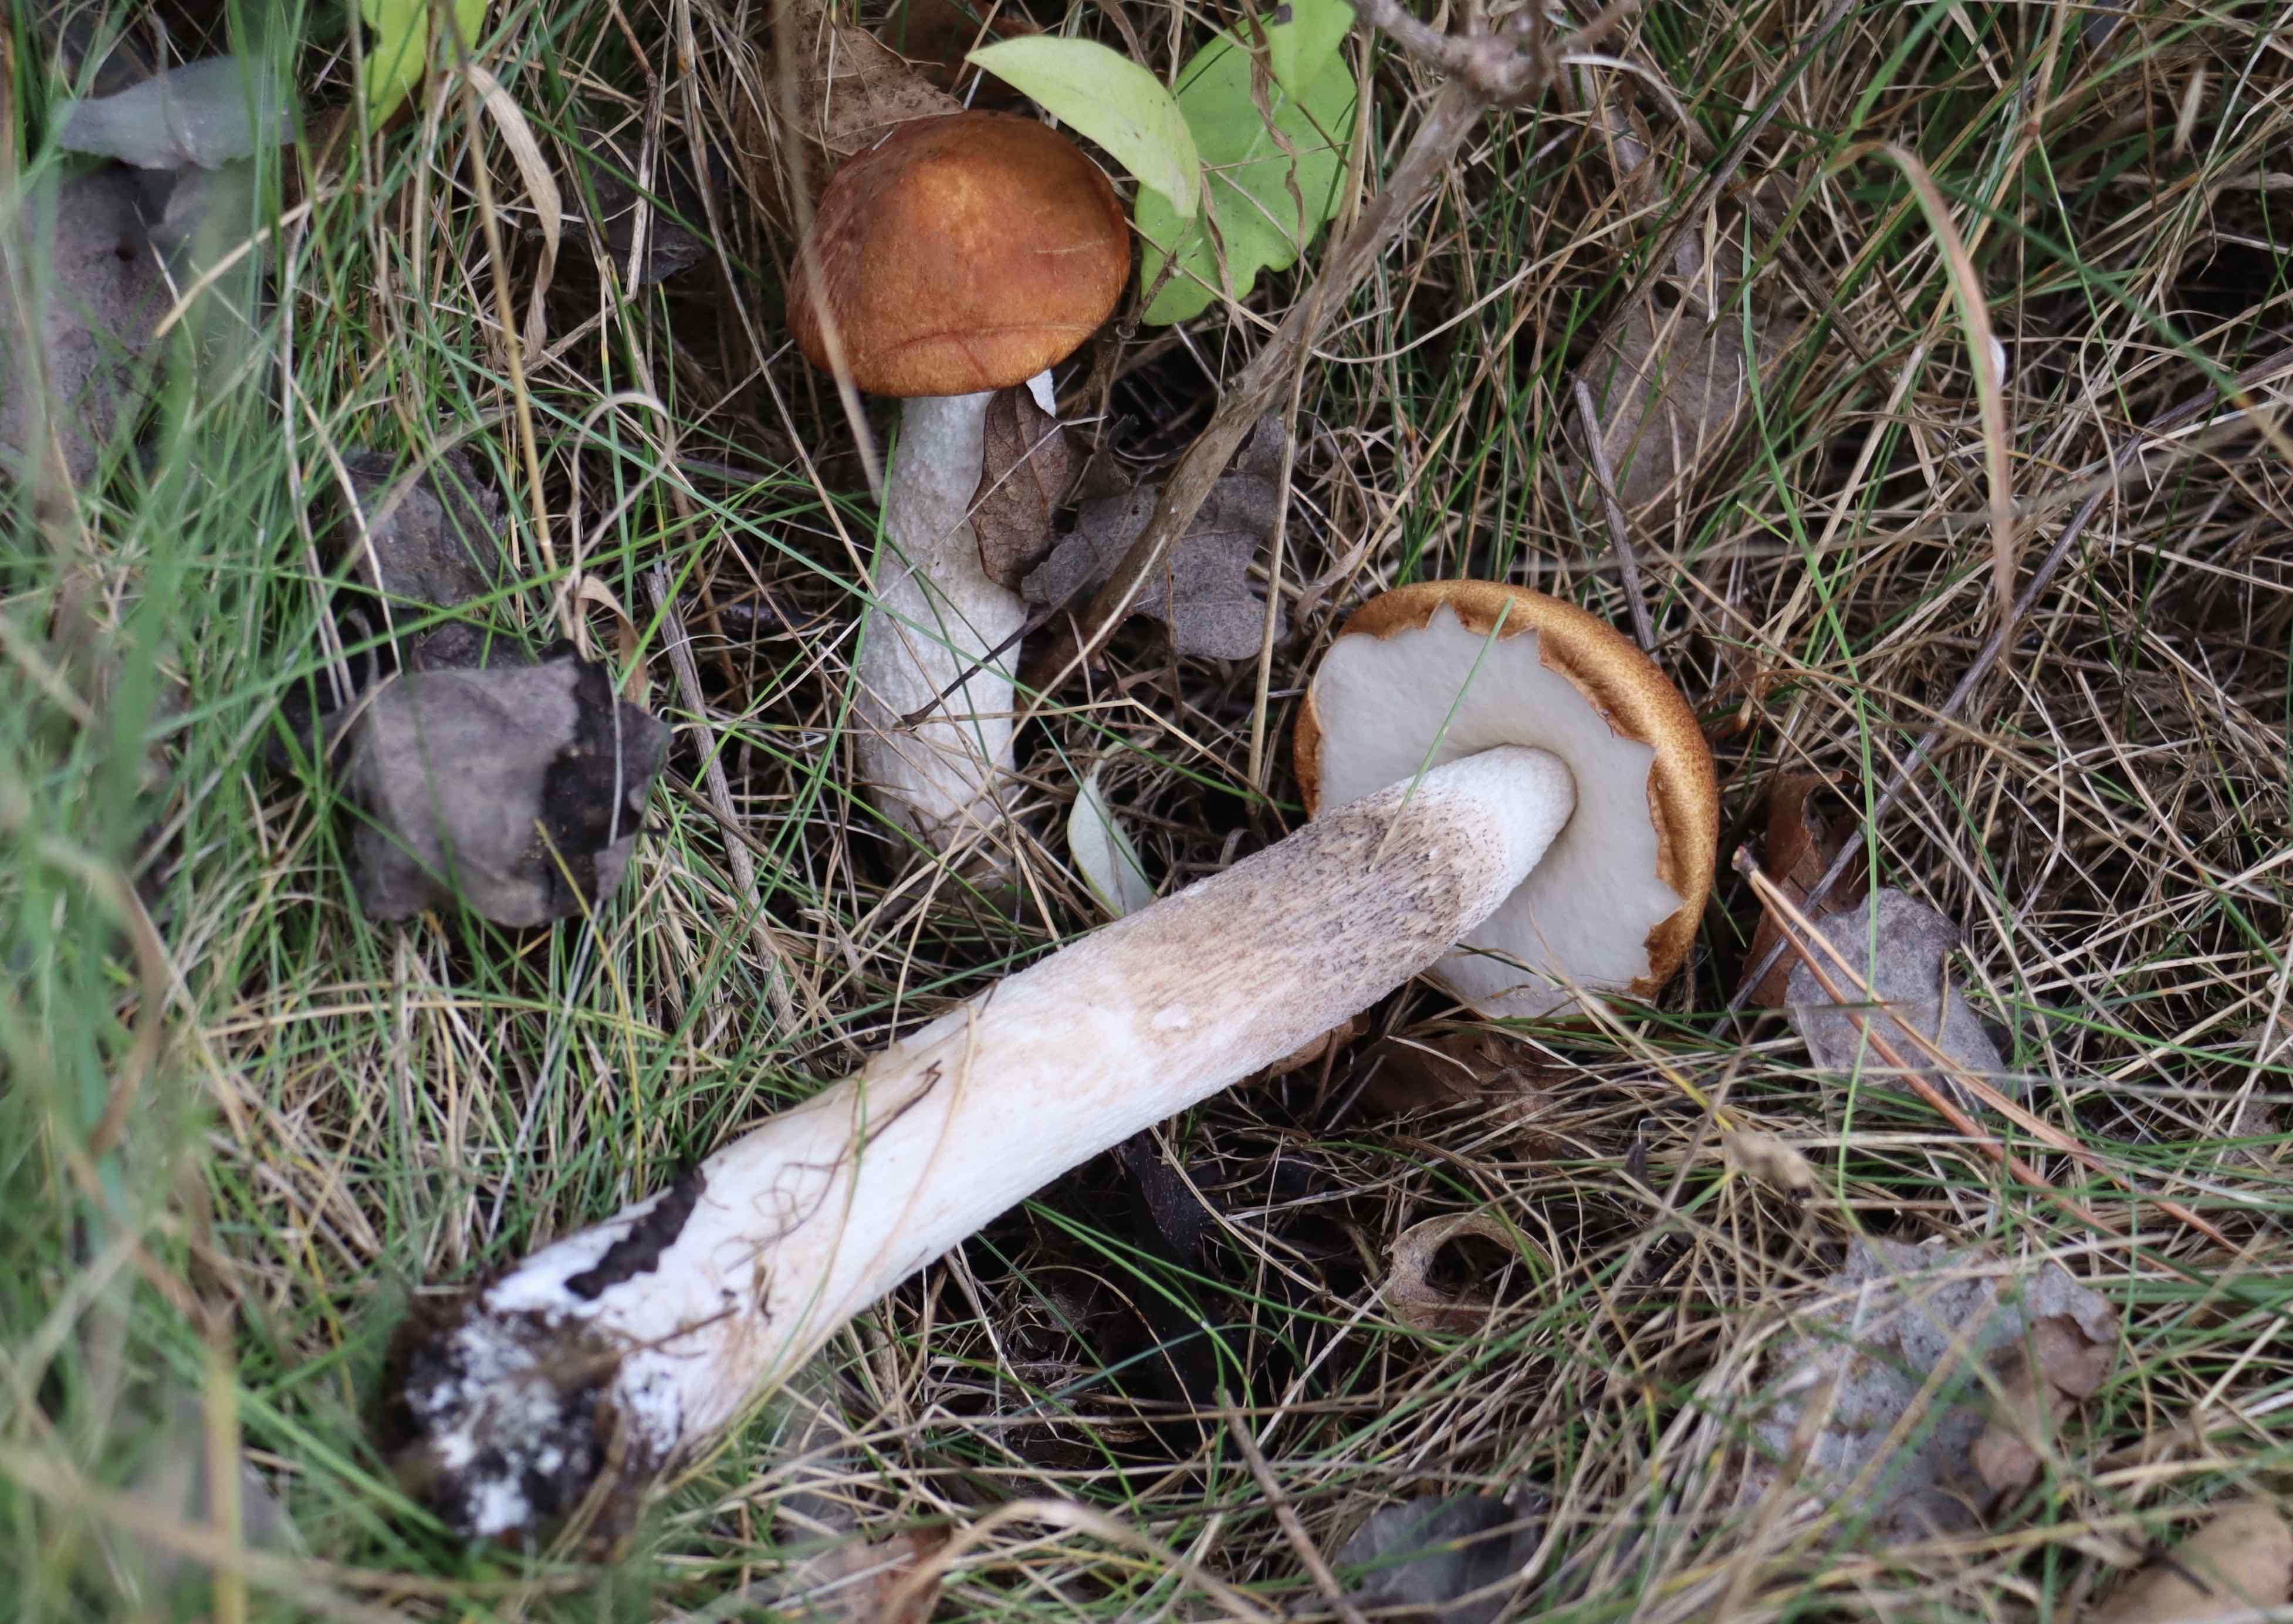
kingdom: Fungi
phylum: Basidiomycota
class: Agaricomycetes
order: Boletales
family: Boletaceae
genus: Leccinum
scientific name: Leccinum albostipitatum
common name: aspe-skælrørhat
